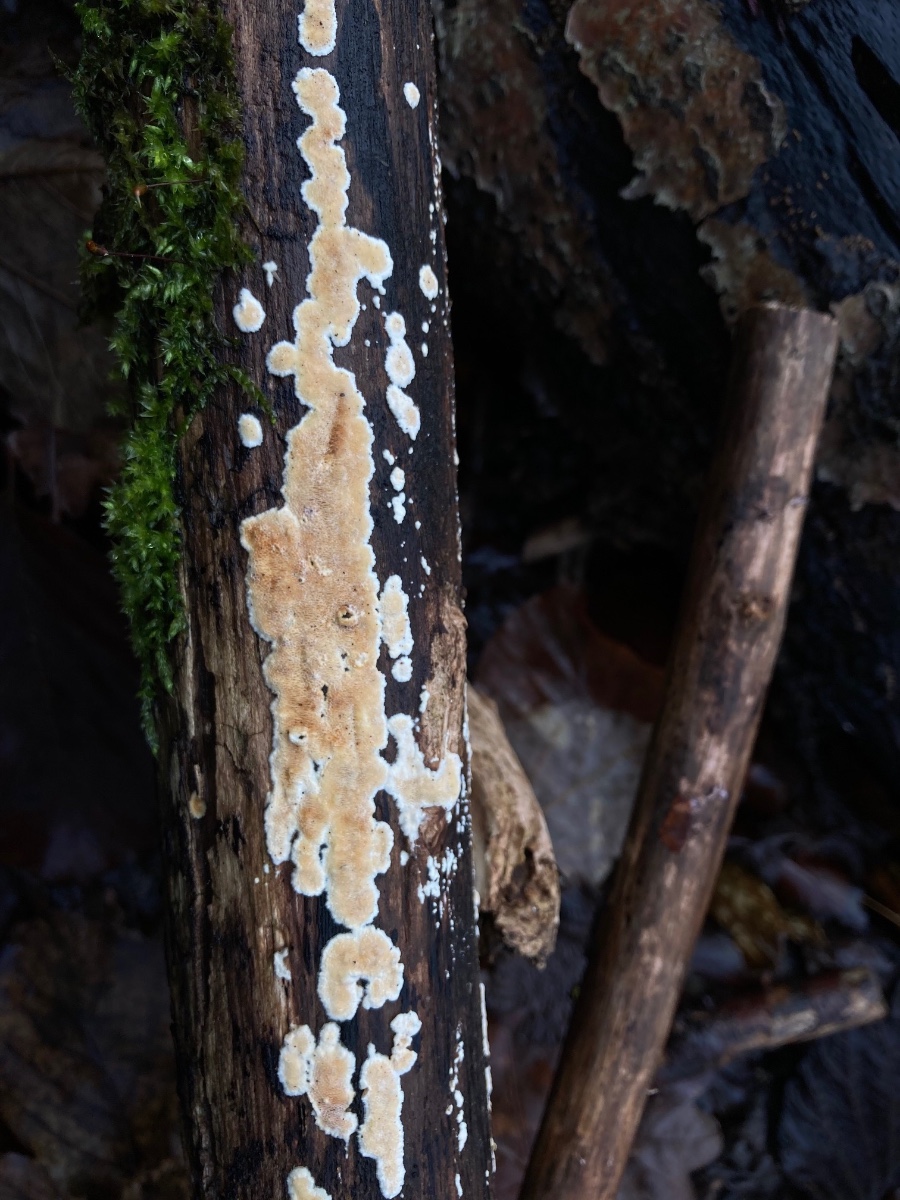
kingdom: Fungi
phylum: Basidiomycota
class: Agaricomycetes
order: Polyporales
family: Steccherinaceae
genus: Junghuhnia
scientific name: Junghuhnia nitida
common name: almindelig skønporesvamp
